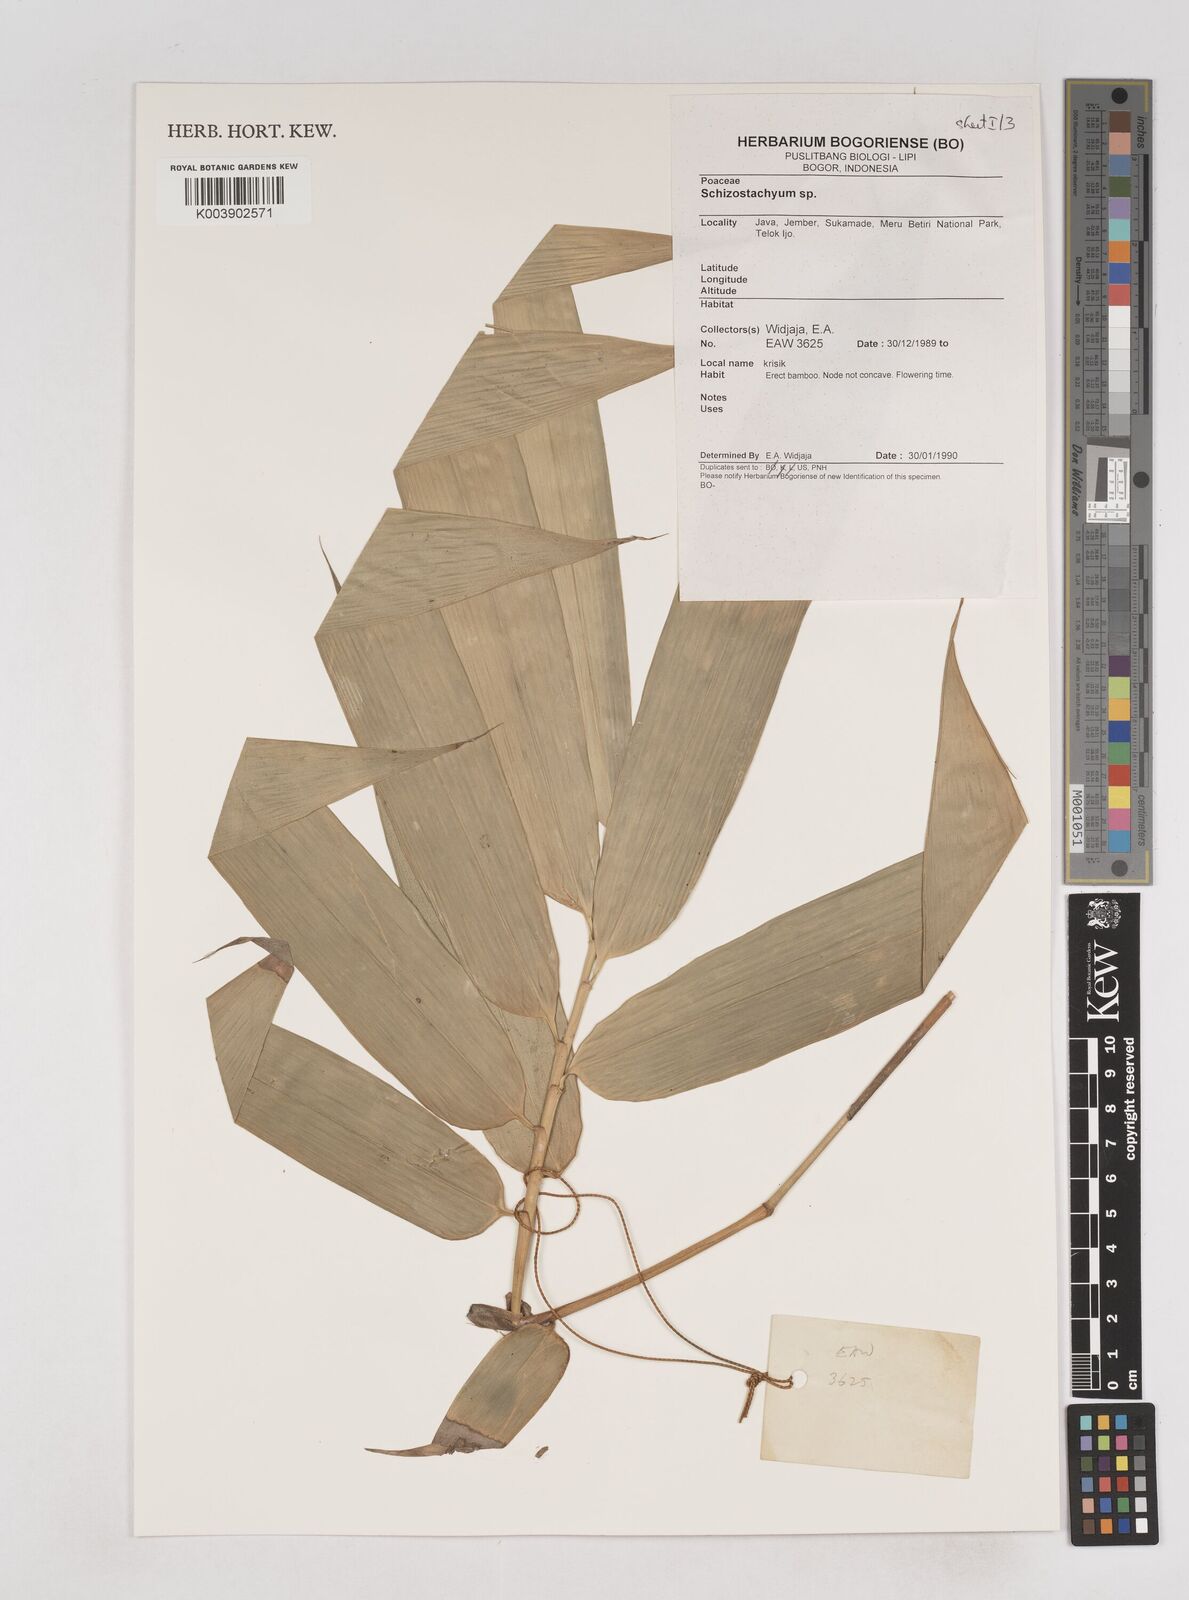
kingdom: Plantae
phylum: Tracheophyta
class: Liliopsida
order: Poales
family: Poaceae
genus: Schizostachyum
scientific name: Schizostachyum
